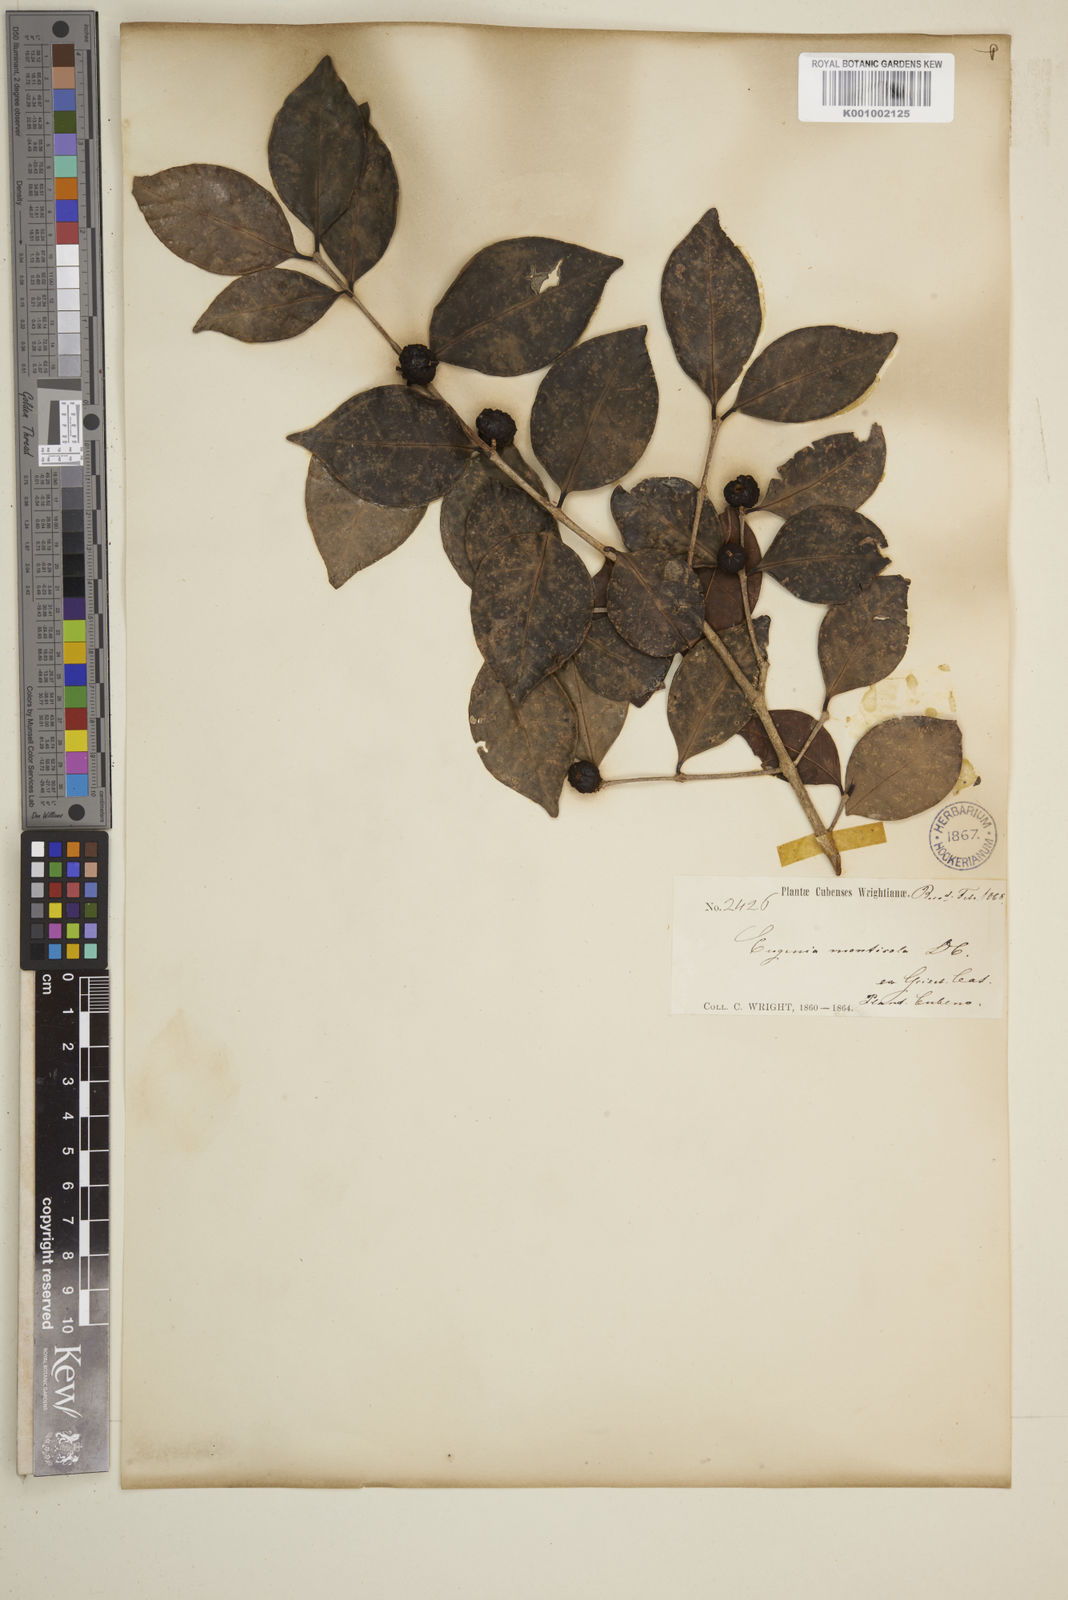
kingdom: Plantae
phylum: Tracheophyta
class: Magnoliopsida
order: Myrtales
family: Myrtaceae
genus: Eugenia
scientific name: Eugenia monticola
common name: Birds berry
